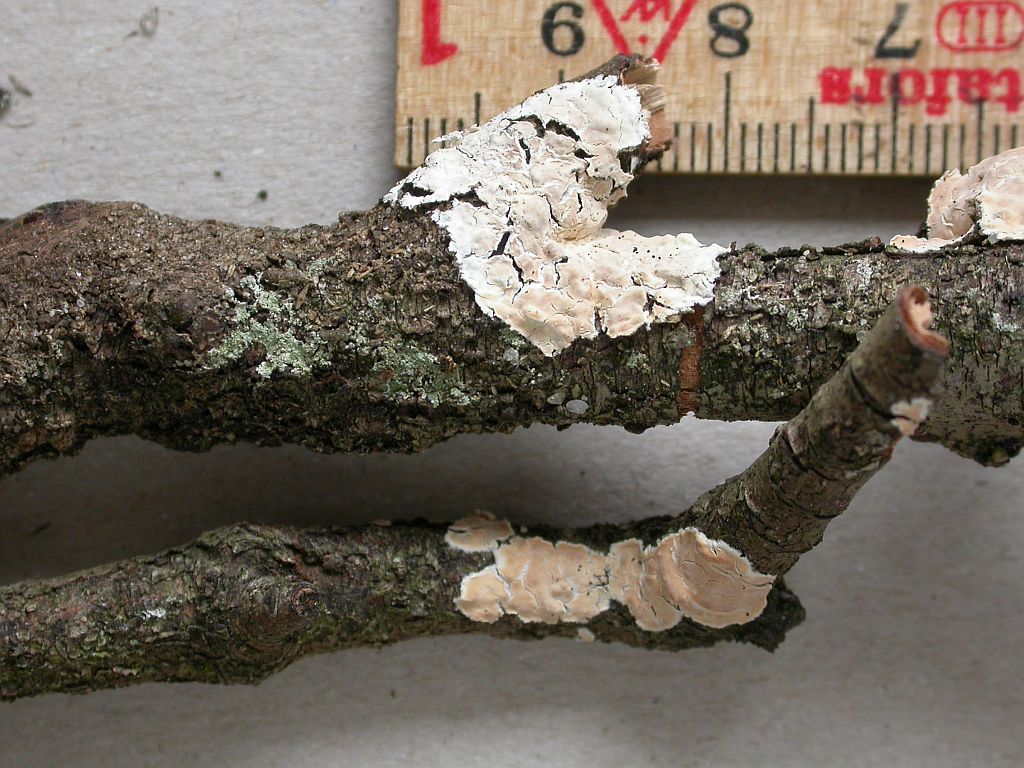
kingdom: Fungi
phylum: Basidiomycota
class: Agaricomycetes
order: Agaricales
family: Physalacriaceae
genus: Cylindrobasidium
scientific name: Cylindrobasidium evolvens
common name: sprækkehinde
